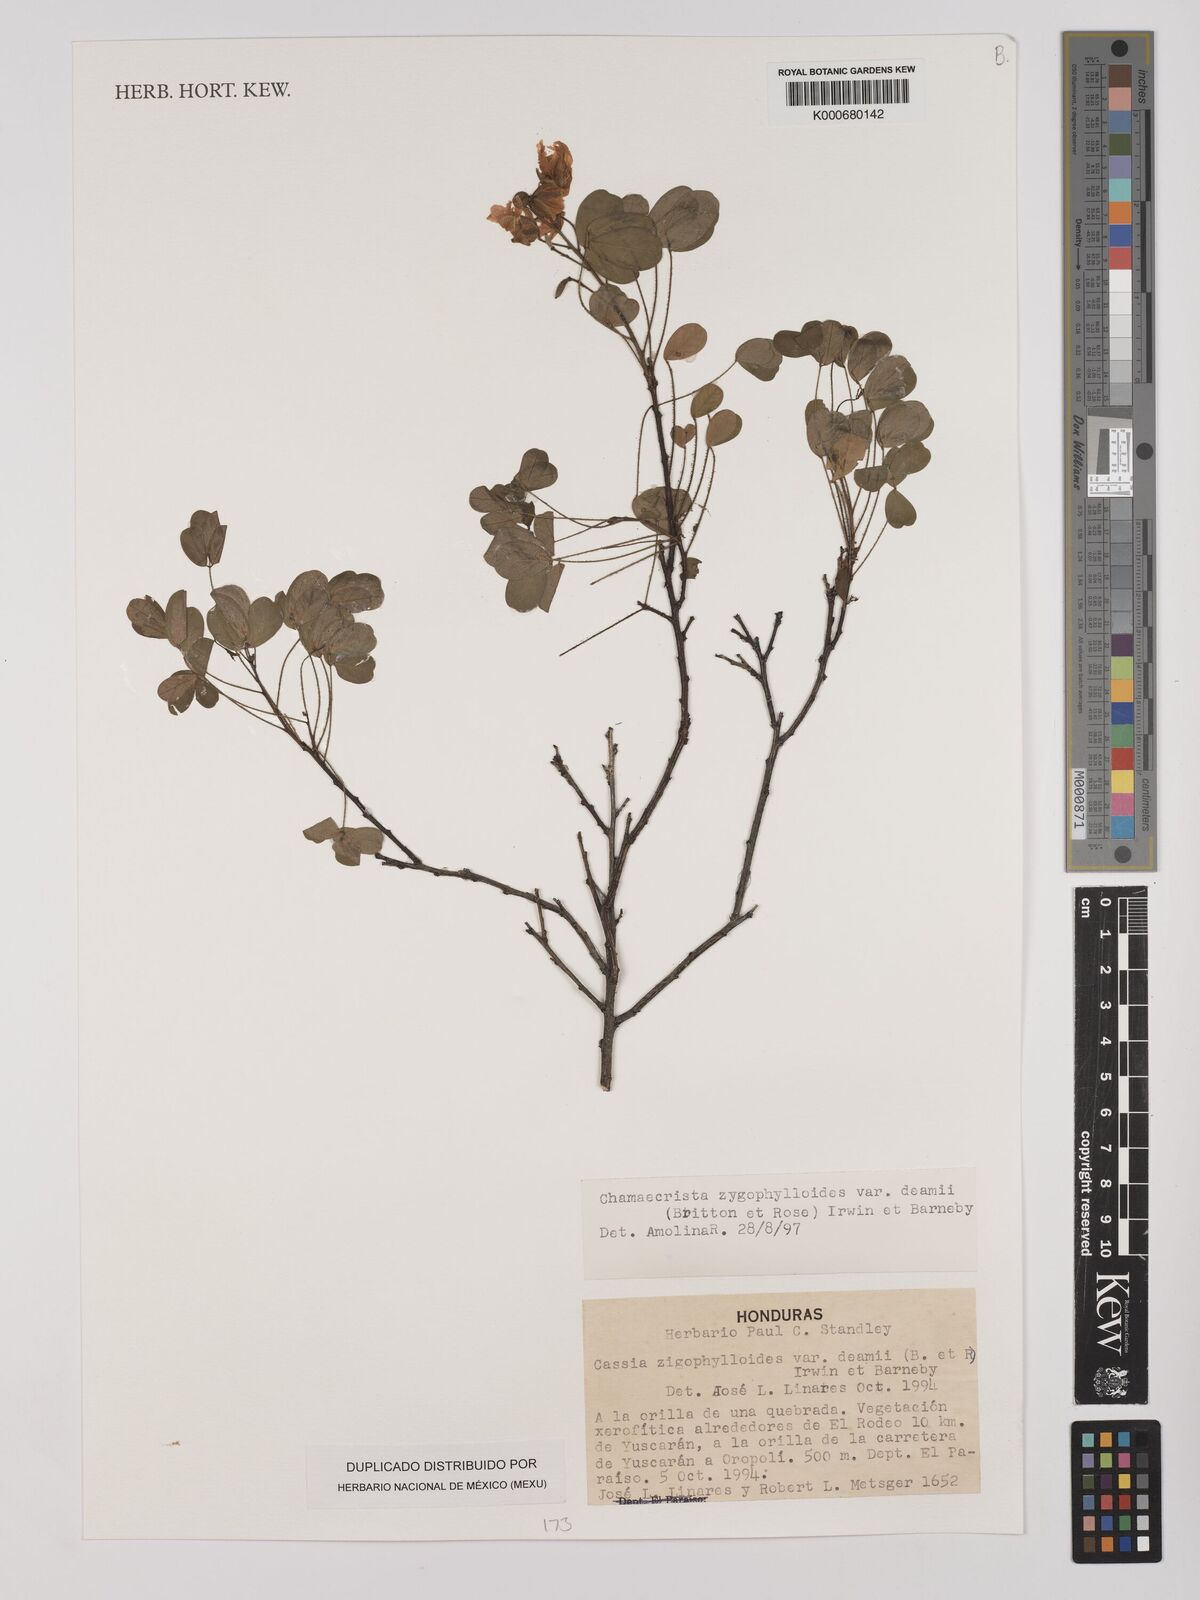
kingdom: Plantae
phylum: Tracheophyta
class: Magnoliopsida
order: Fabales
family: Fabaceae
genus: Chamaecrista
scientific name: Chamaecrista zygophylloides
